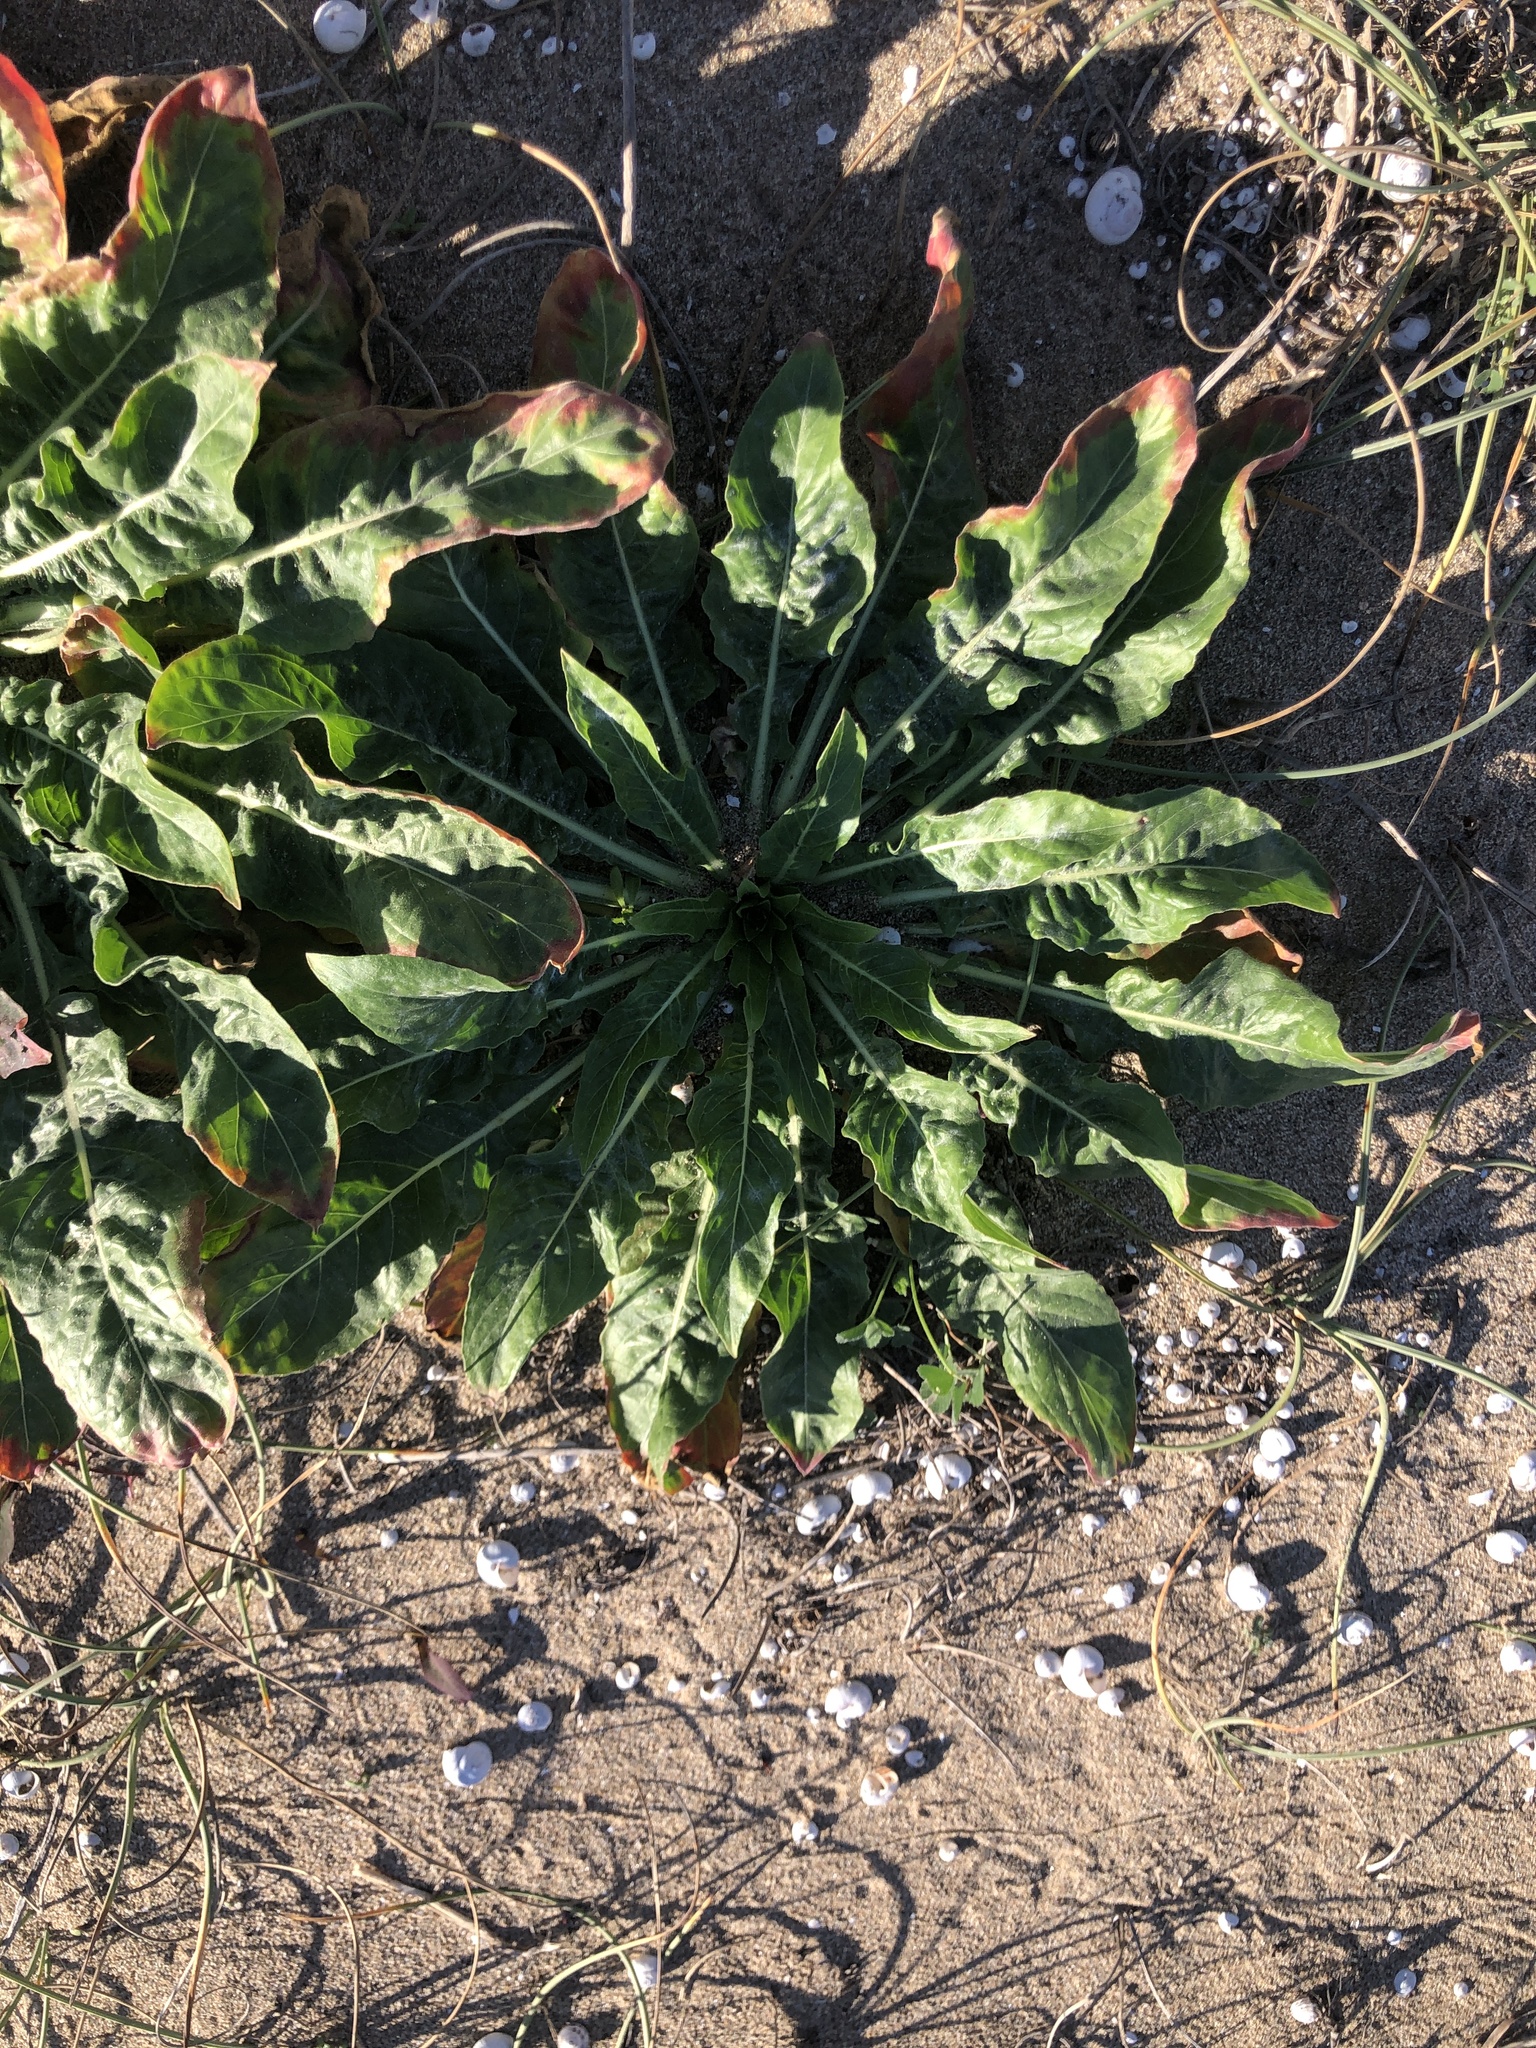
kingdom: Plantae
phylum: Tracheophyta
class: Magnoliopsida
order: Myrtales
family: Onagraceae
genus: Oenothera
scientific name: Oenothera glazioviana
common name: Large-flowered evening-primrose
